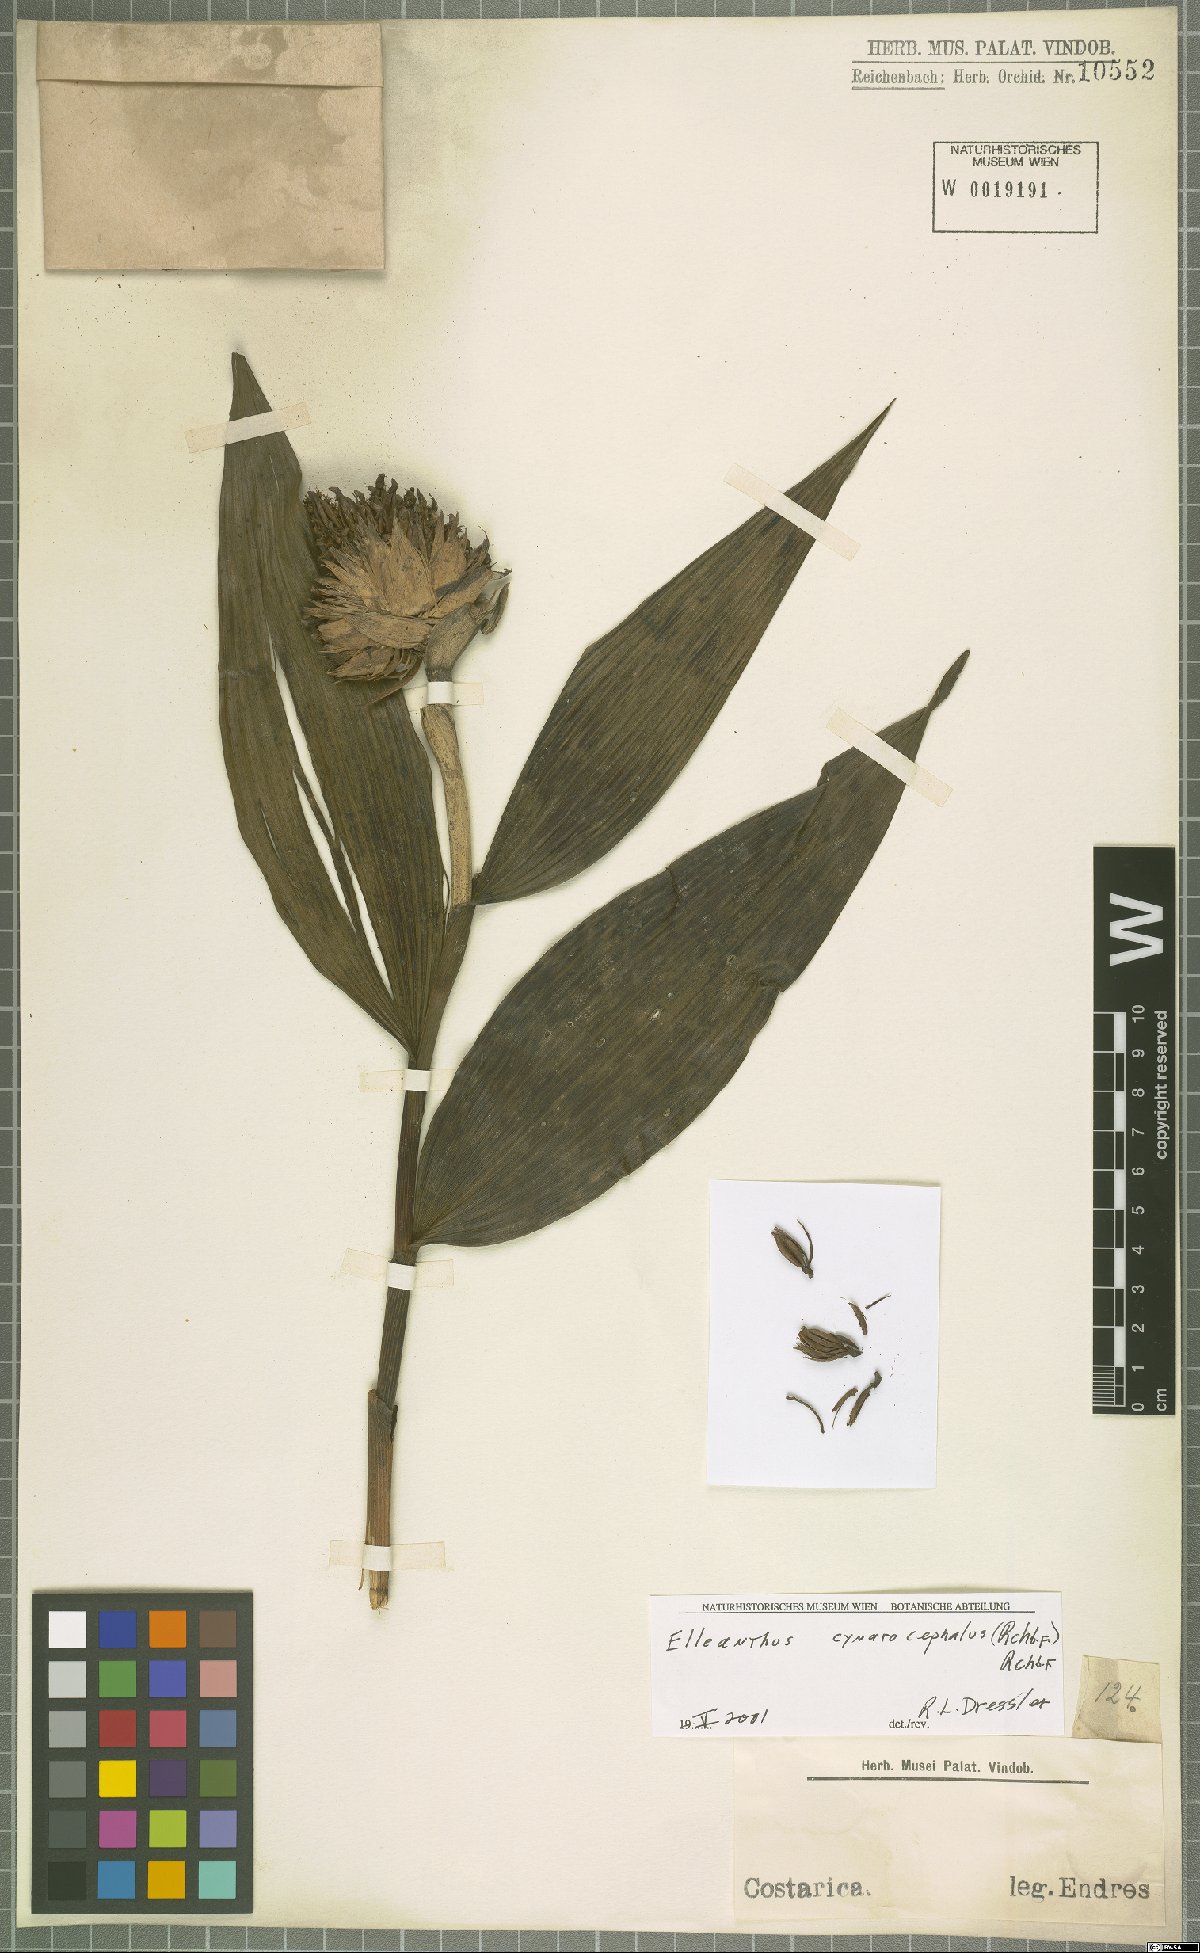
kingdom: Plantae
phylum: Tracheophyta
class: Liliopsida
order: Asparagales
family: Orchidaceae
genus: Elleanthus
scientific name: Elleanthus capitatus
